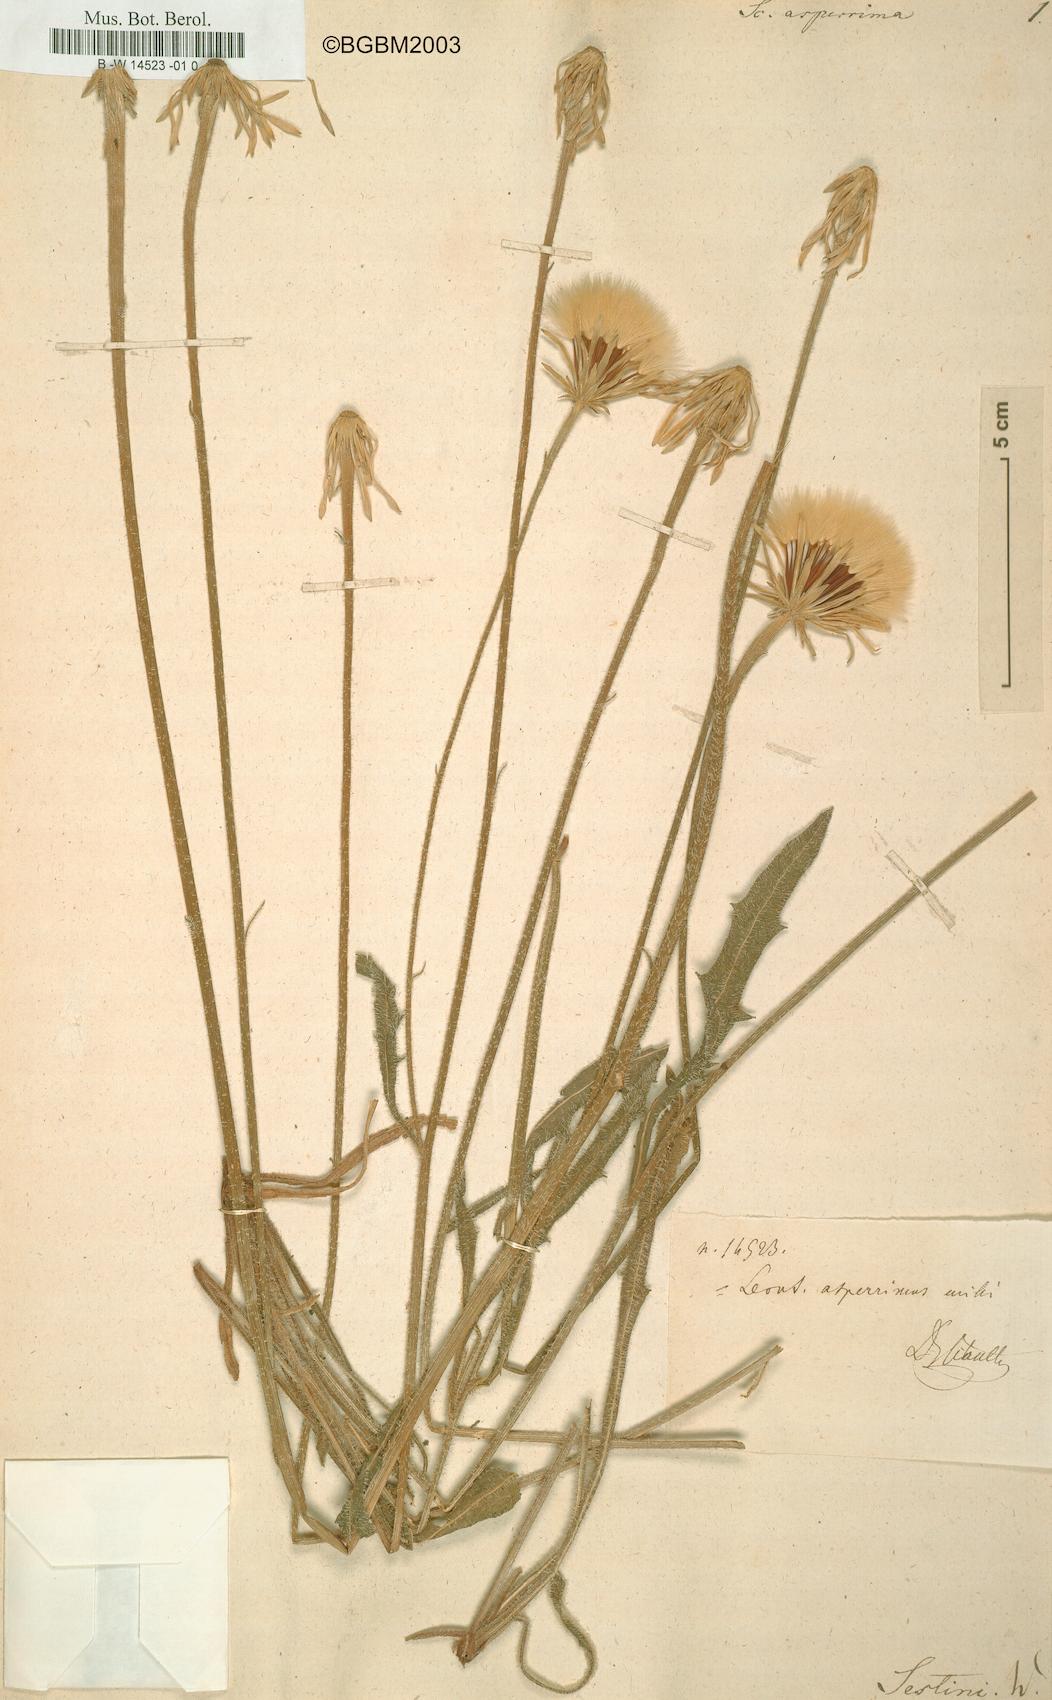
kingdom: Plantae
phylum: Tracheophyta
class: Magnoliopsida
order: Asterales
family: Asteraceae
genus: Leontodon
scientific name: Leontodon asperrimus
